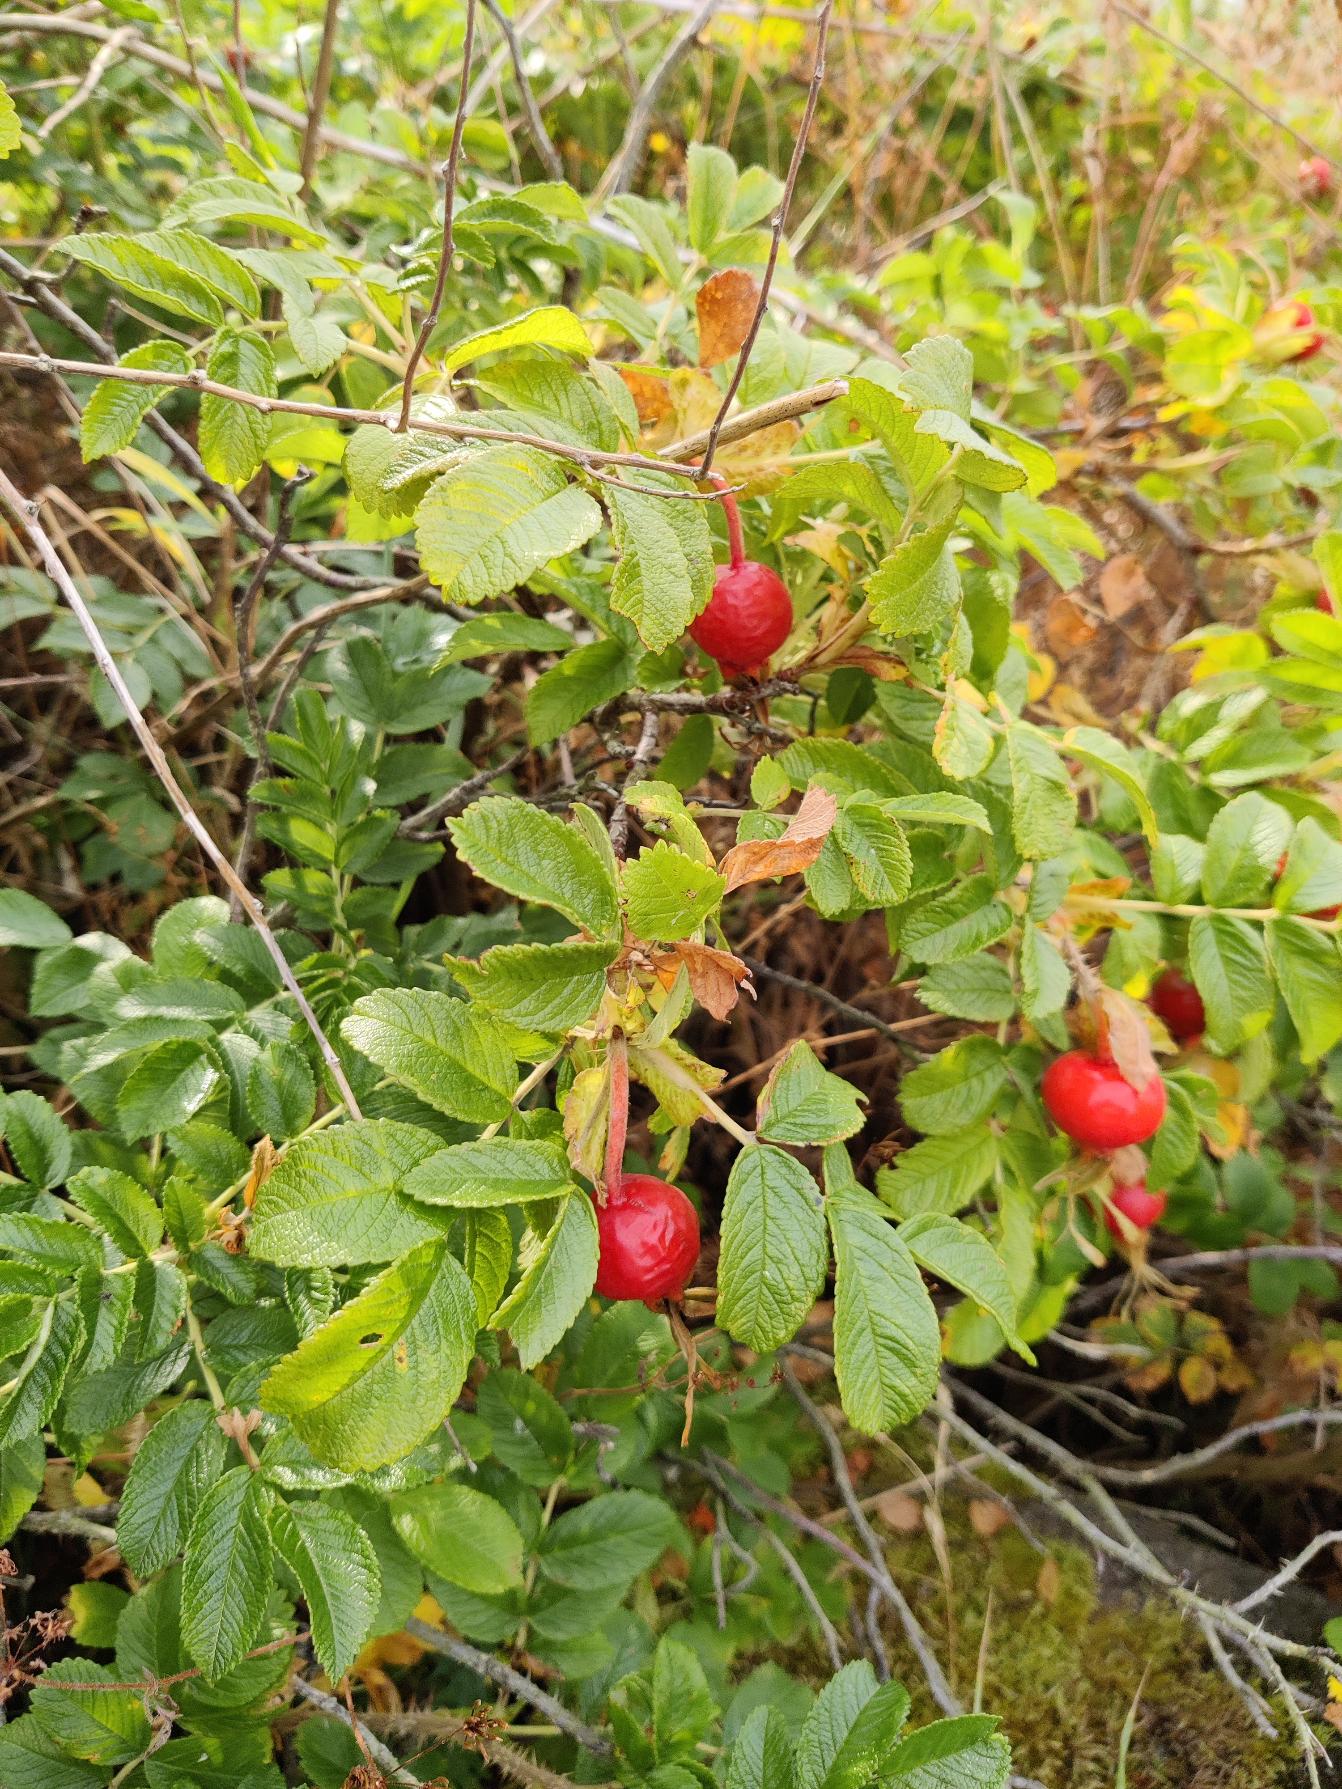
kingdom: Plantae
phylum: Tracheophyta
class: Magnoliopsida
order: Rosales
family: Rosaceae
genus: Rosa
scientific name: Rosa rugosa
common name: Rynket rose
